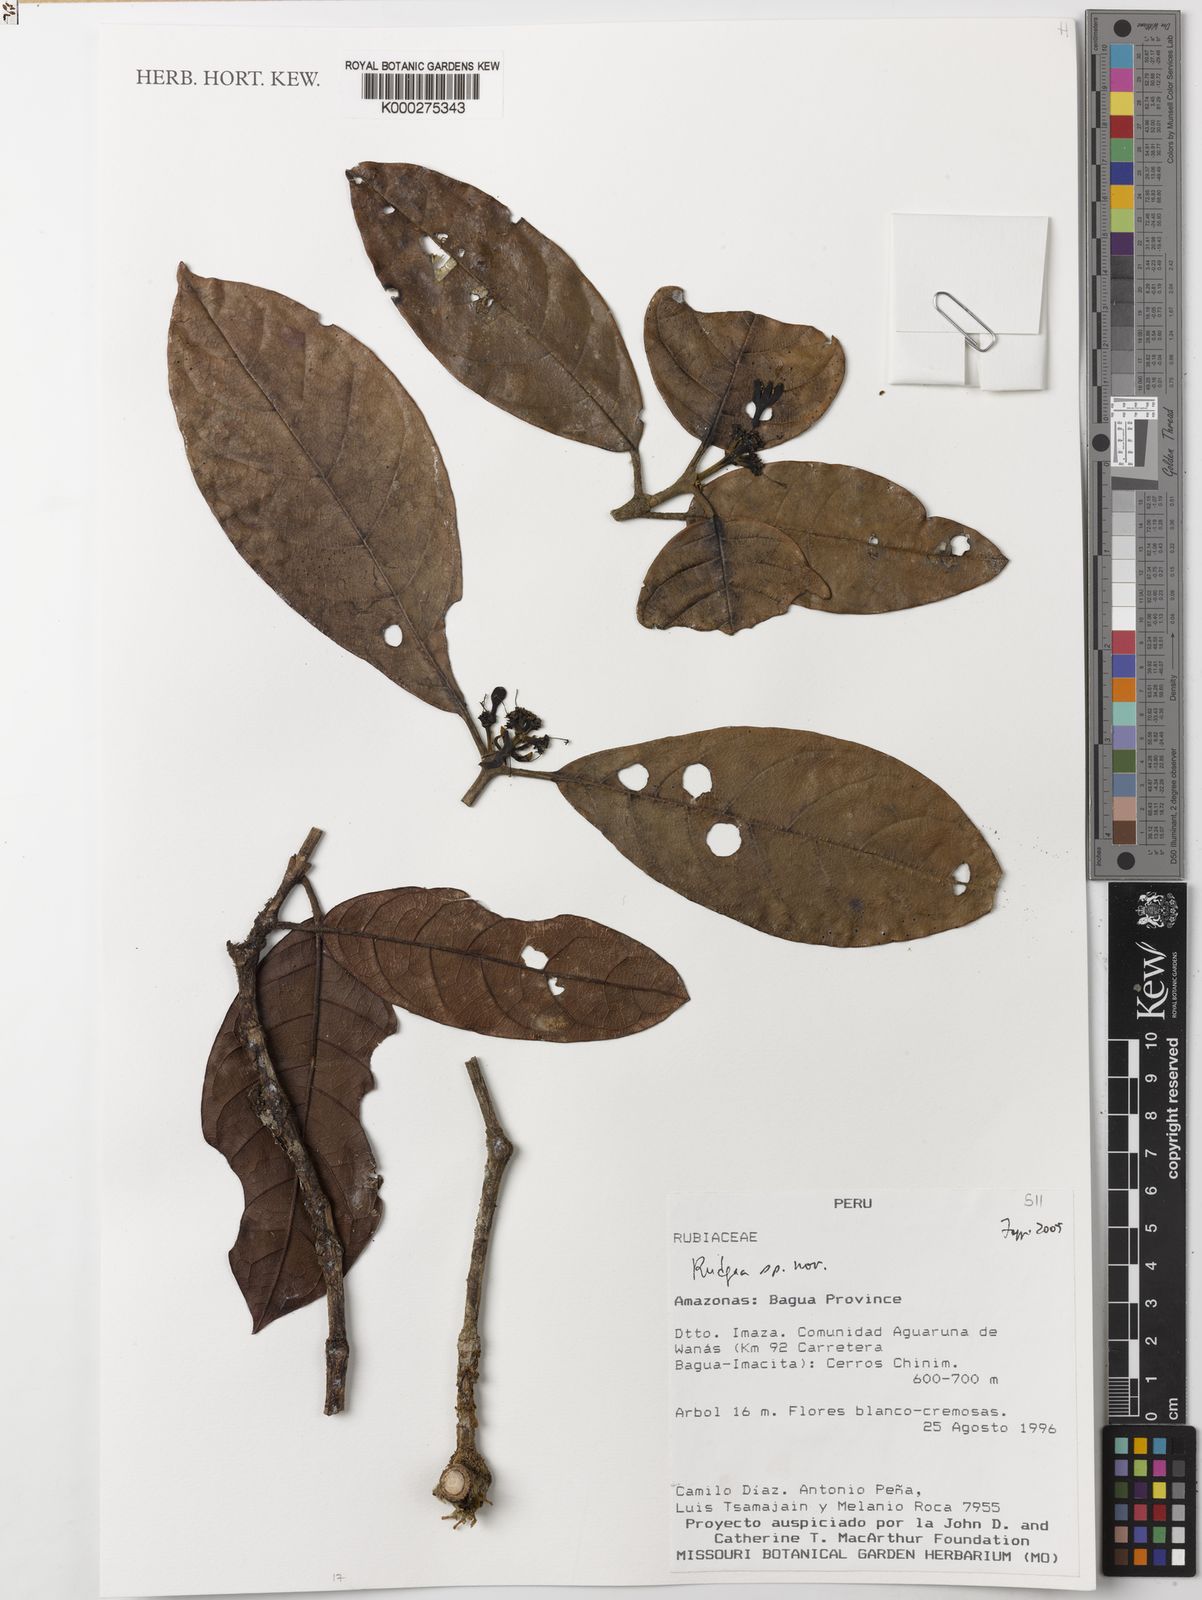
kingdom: Plantae
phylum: Tracheophyta
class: Magnoliopsida
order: Gentianales
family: Rubiaceae
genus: Rudgea
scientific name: Rudgea
